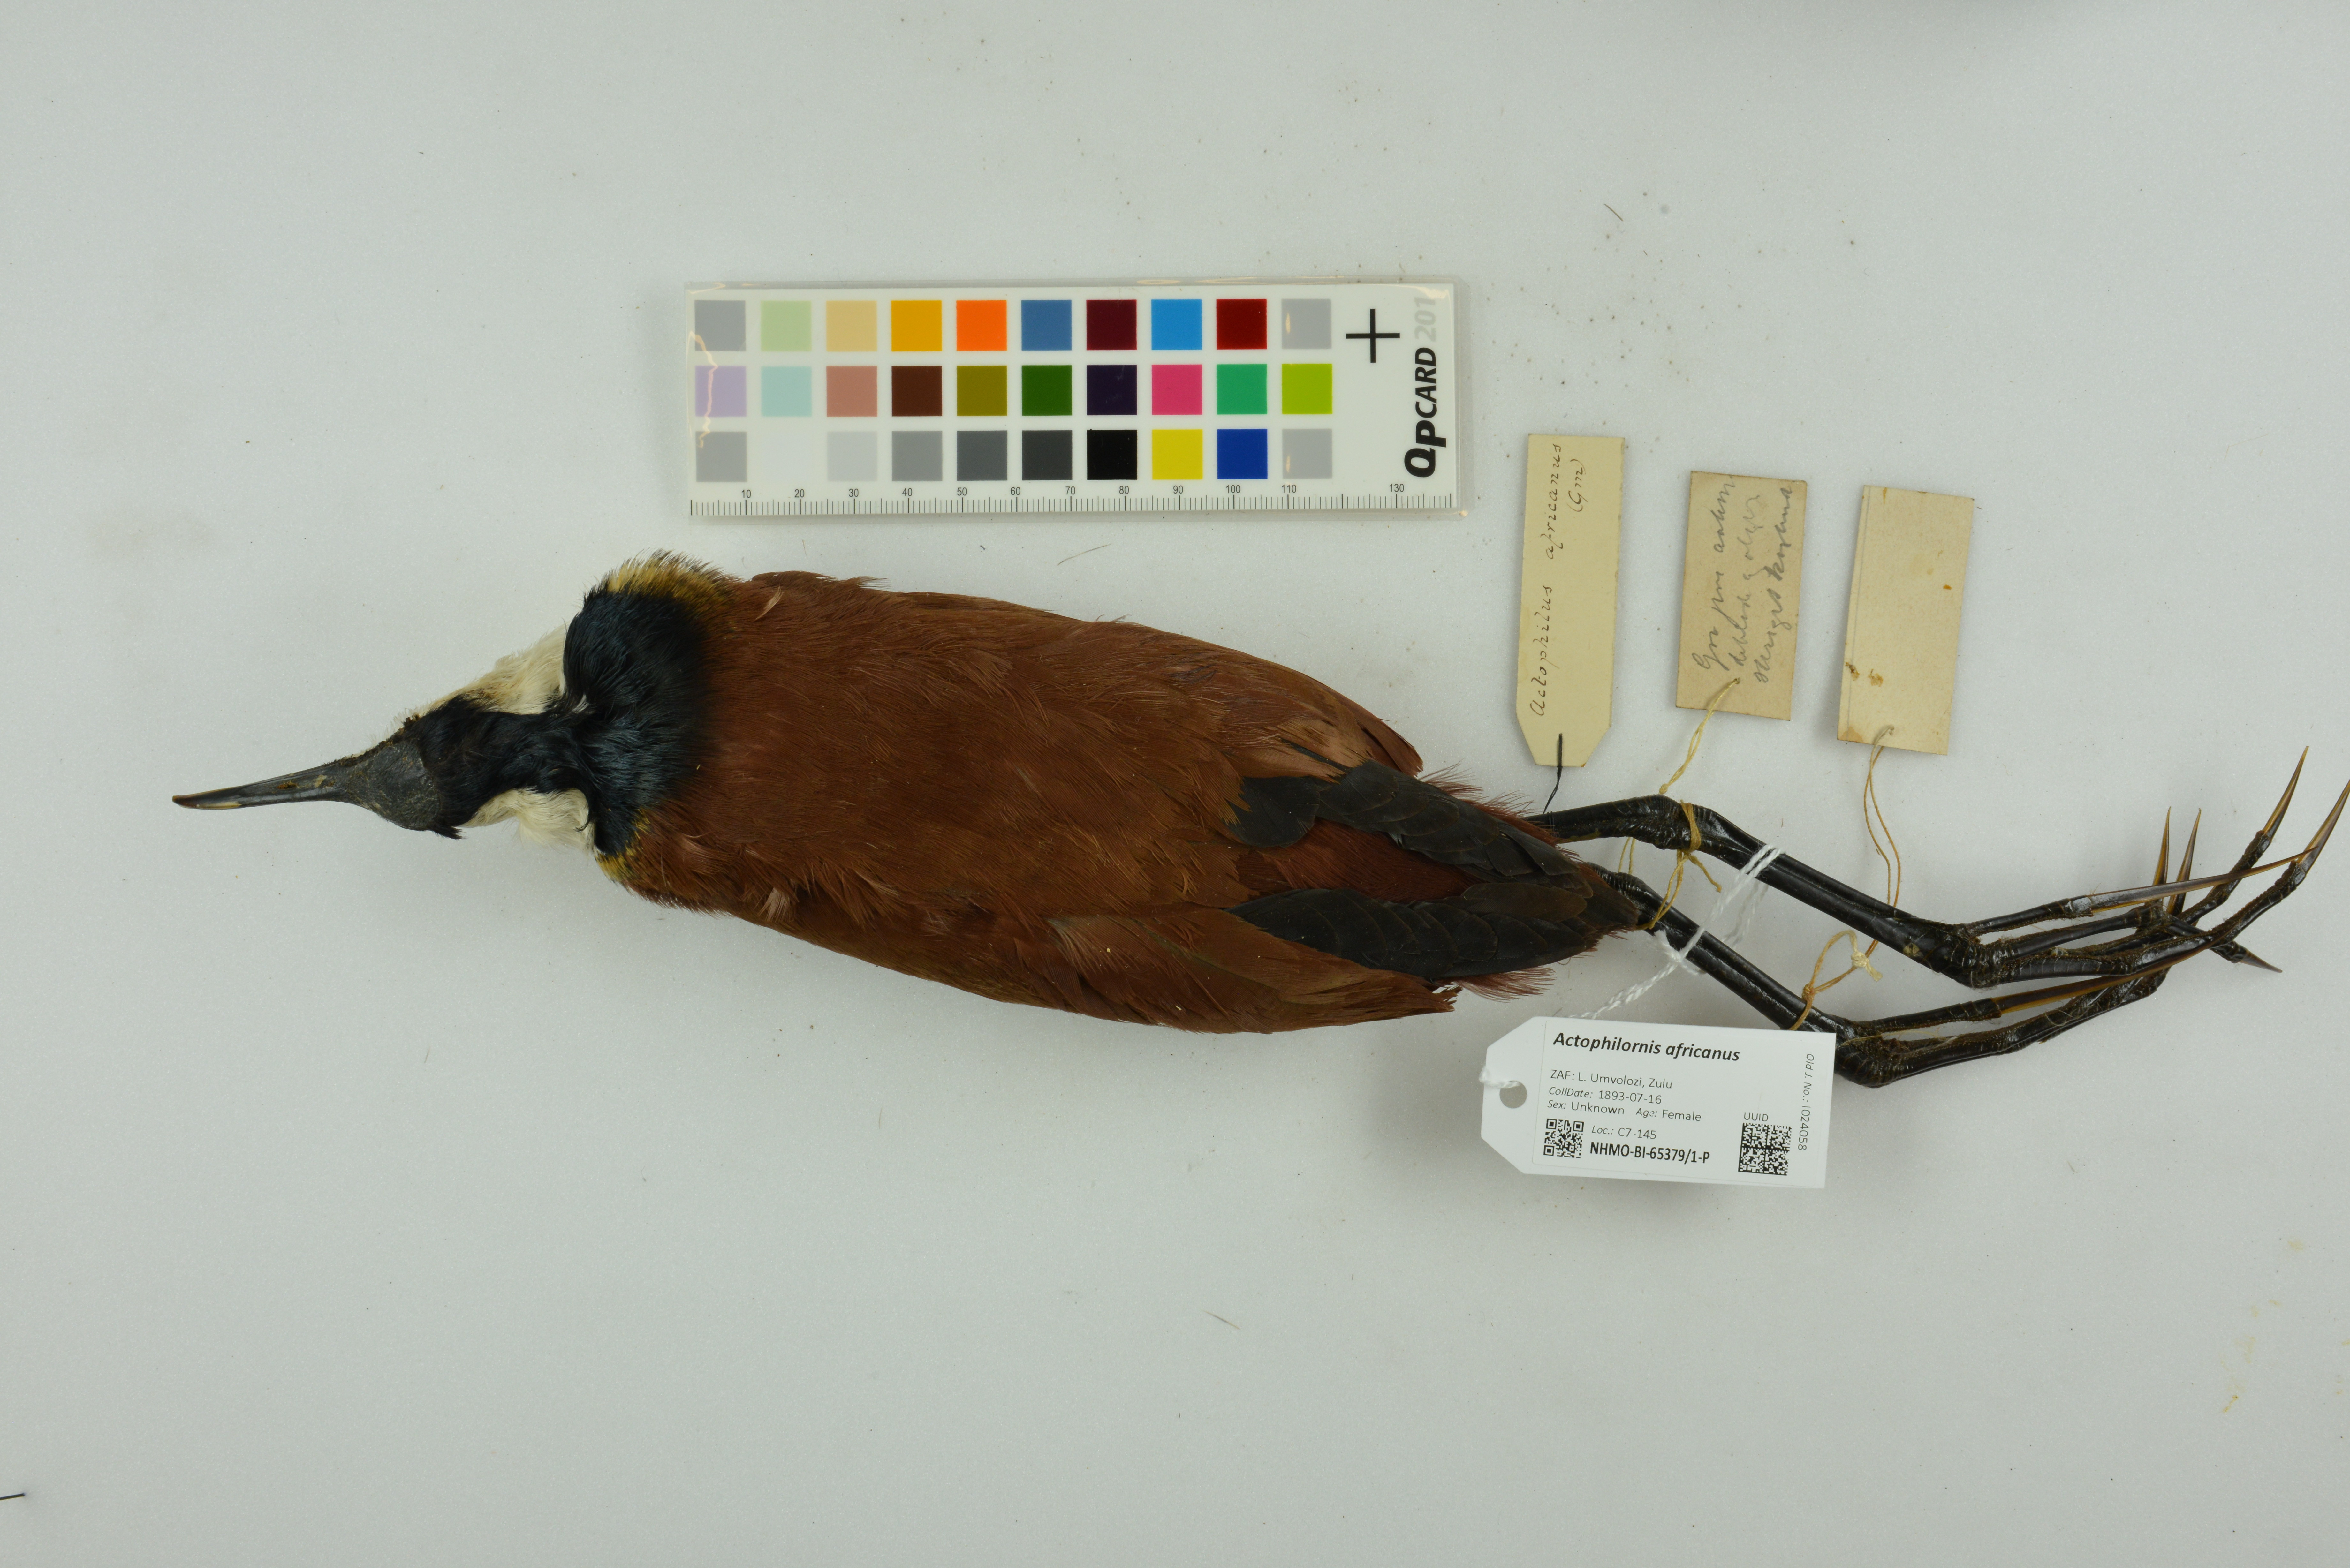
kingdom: Animalia
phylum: Chordata
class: Aves
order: Charadriiformes
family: Jacanidae
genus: Actophilornis
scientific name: Actophilornis africanus
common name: African jacana
